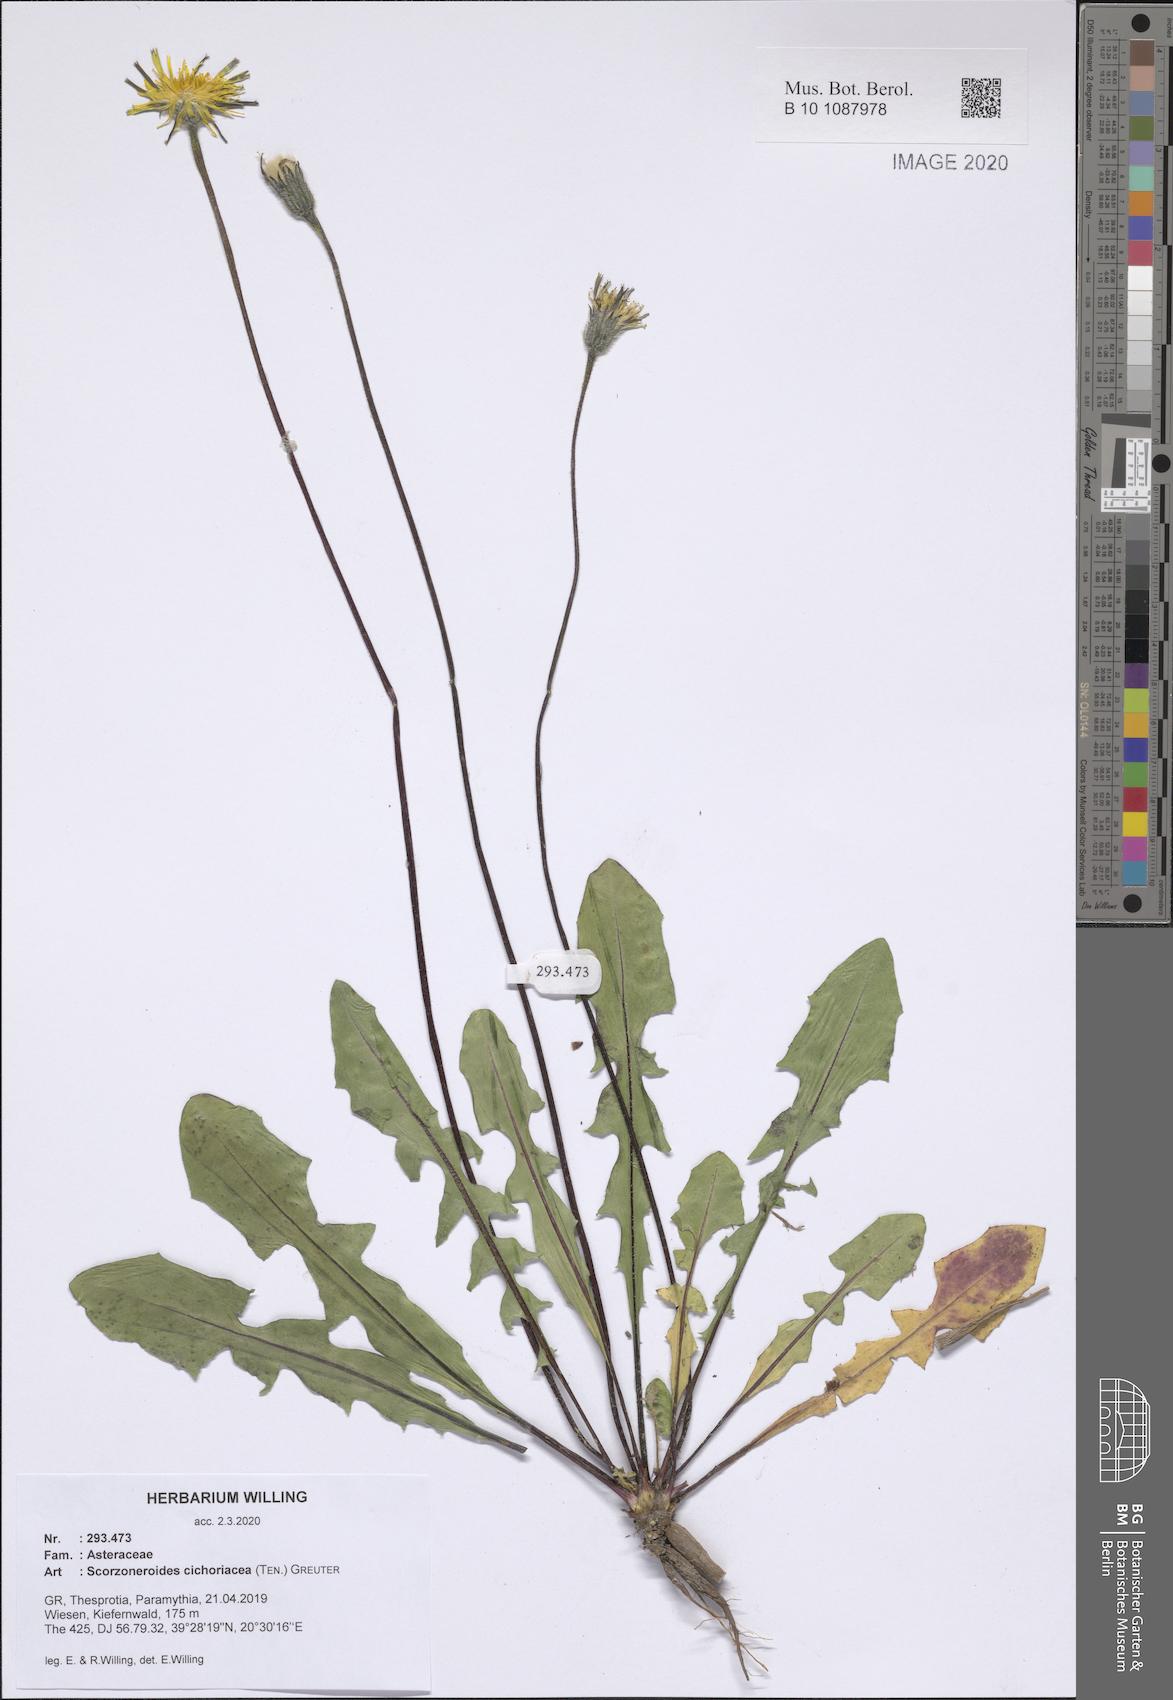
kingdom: Plantae
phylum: Tracheophyta
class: Magnoliopsida
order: Asterales
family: Asteraceae
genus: Scorzoneroides
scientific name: Scorzoneroides cichoriacea
